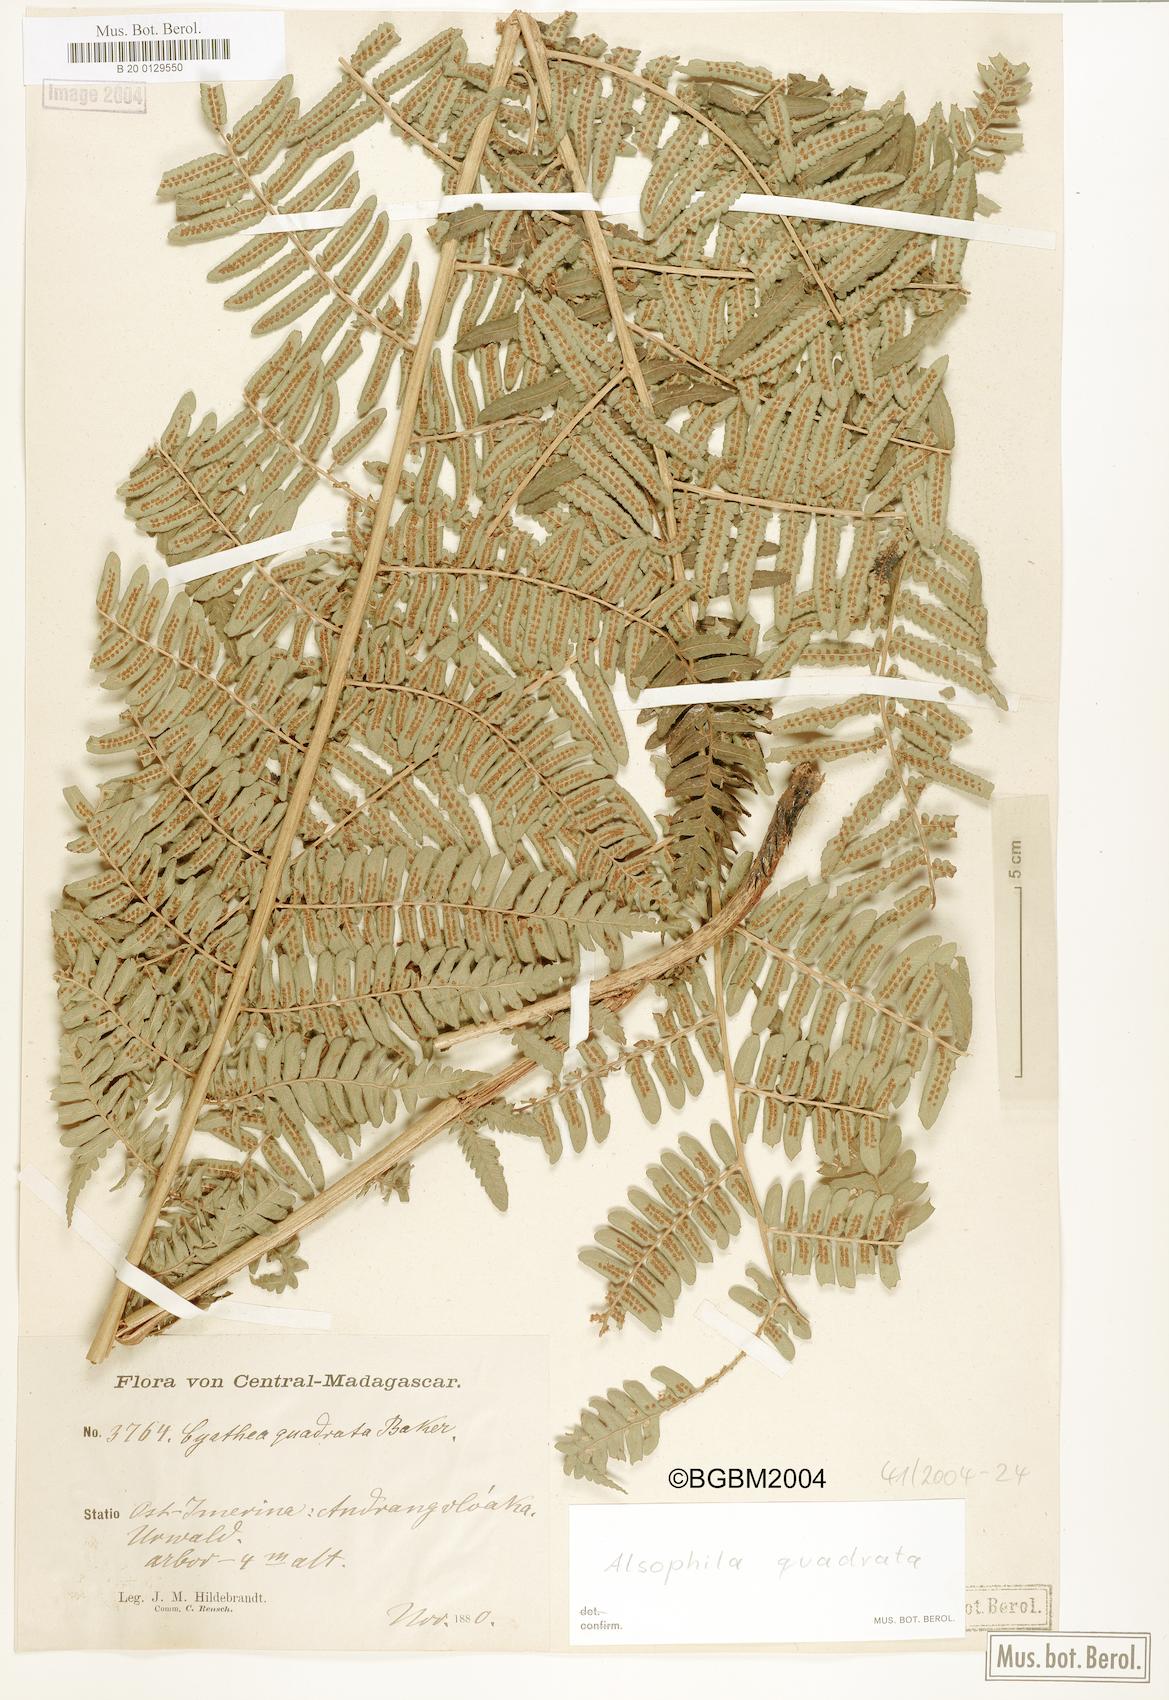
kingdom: Plantae
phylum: Tracheophyta
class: Polypodiopsida
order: Cyatheales
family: Cyatheaceae
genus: Alsophila
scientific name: Alsophila quadrata
